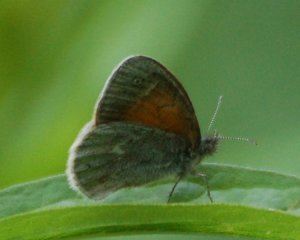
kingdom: Animalia
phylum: Arthropoda
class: Insecta
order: Lepidoptera
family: Nymphalidae
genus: Coenonympha
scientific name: Coenonympha tullia
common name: Large Heath
